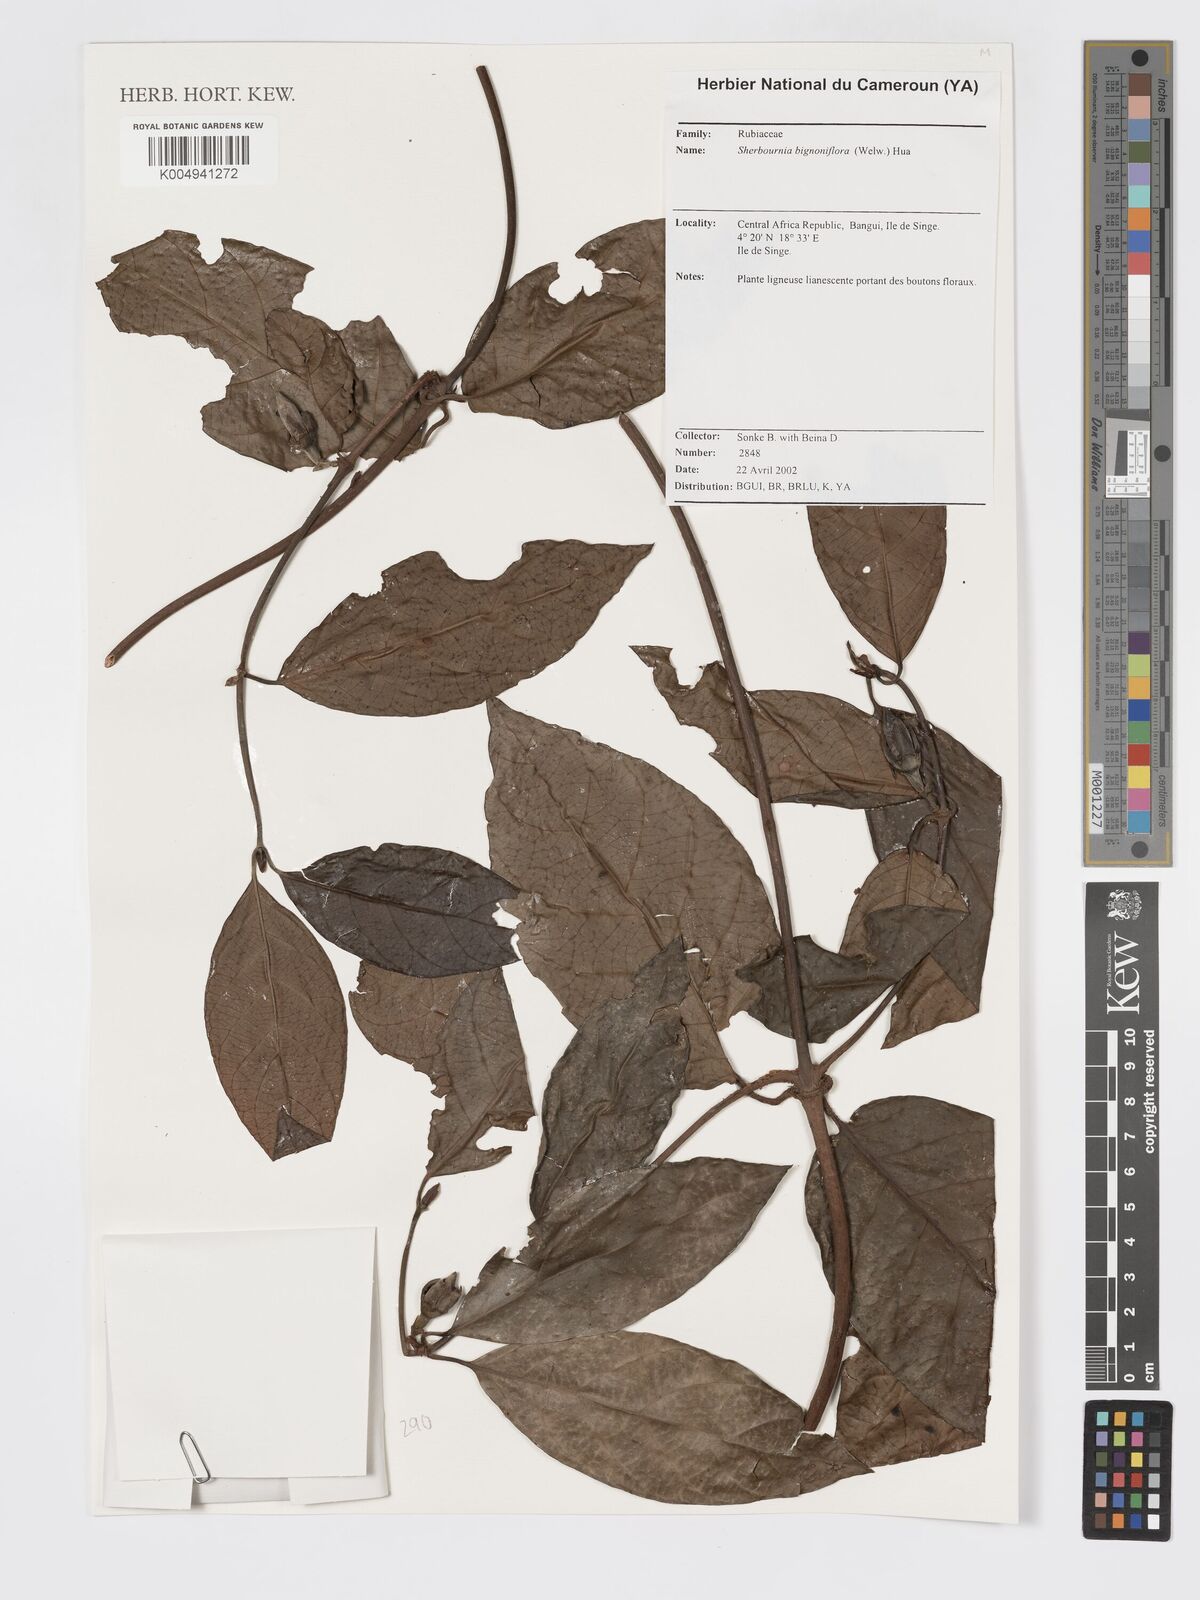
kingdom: Plantae
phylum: Tracheophyta
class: Magnoliopsida
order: Gentianales
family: Rubiaceae
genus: Sherbournia
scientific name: Sherbournia bignoniiflora
